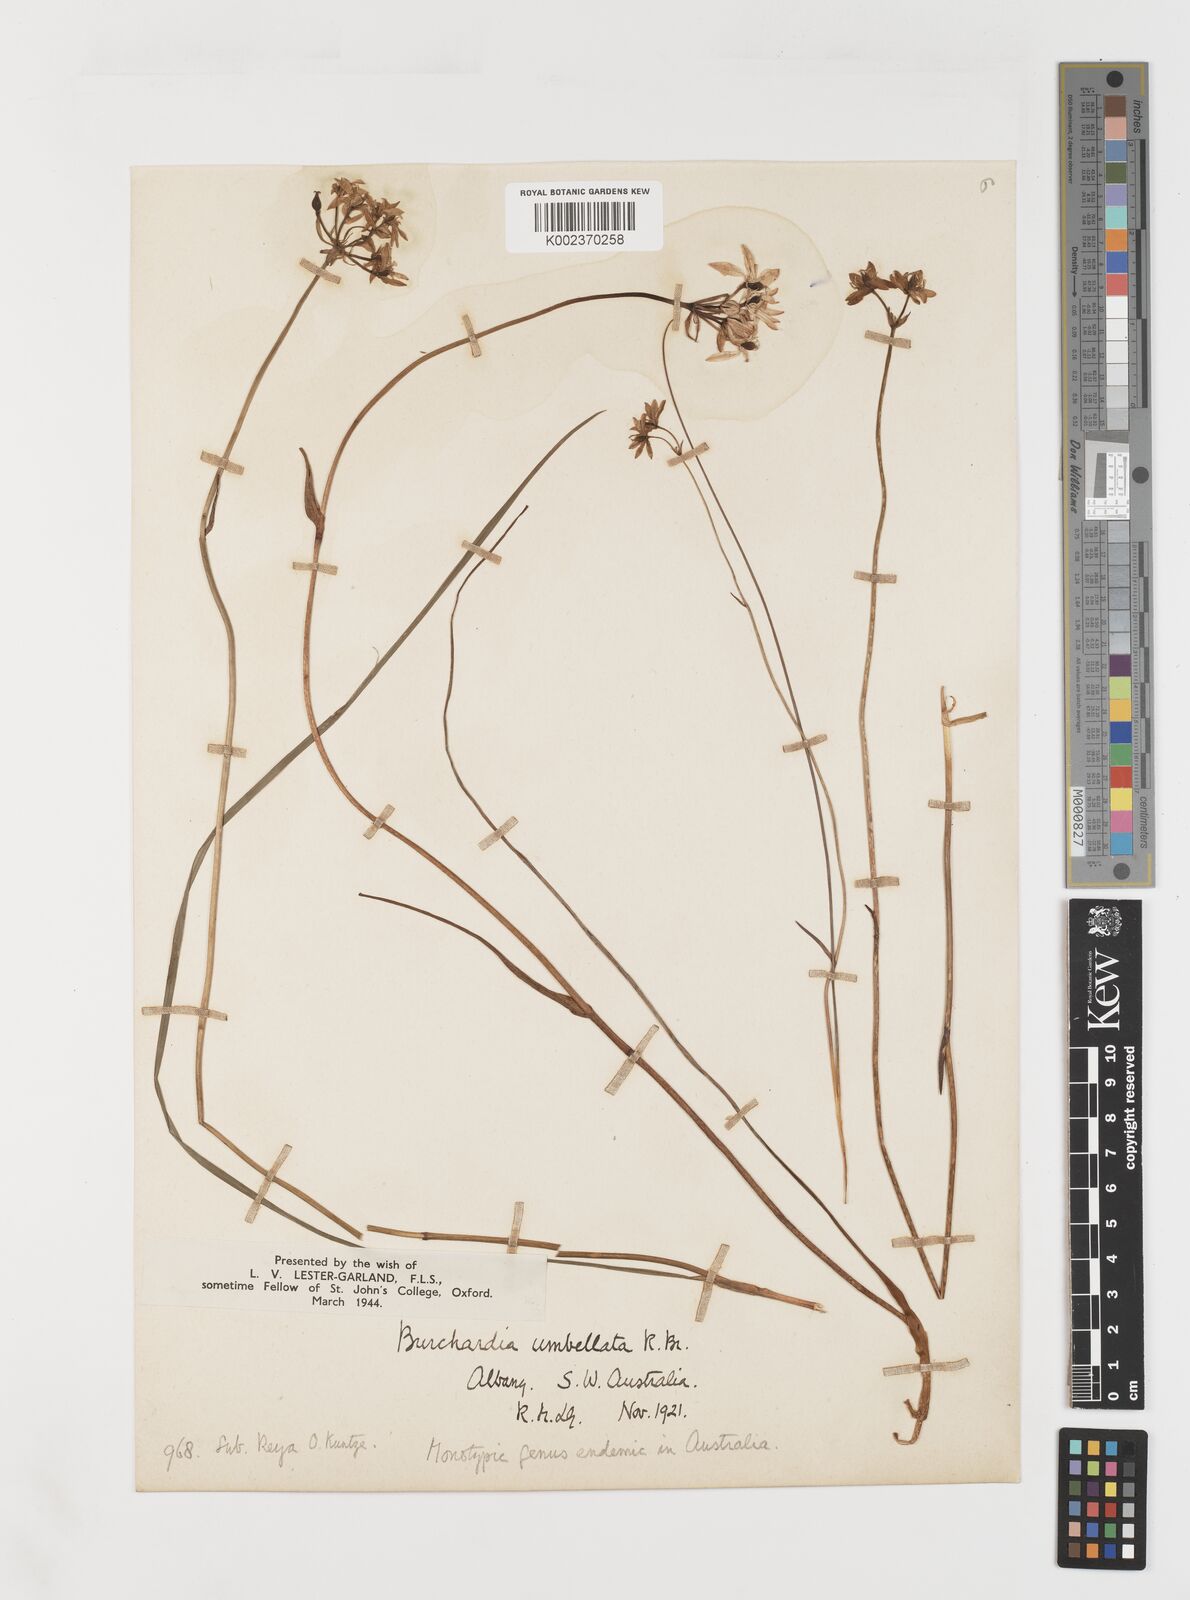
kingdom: Plantae
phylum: Tracheophyta
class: Liliopsida
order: Liliales
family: Colchicaceae
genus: Burchardia
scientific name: Burchardia umbellata
